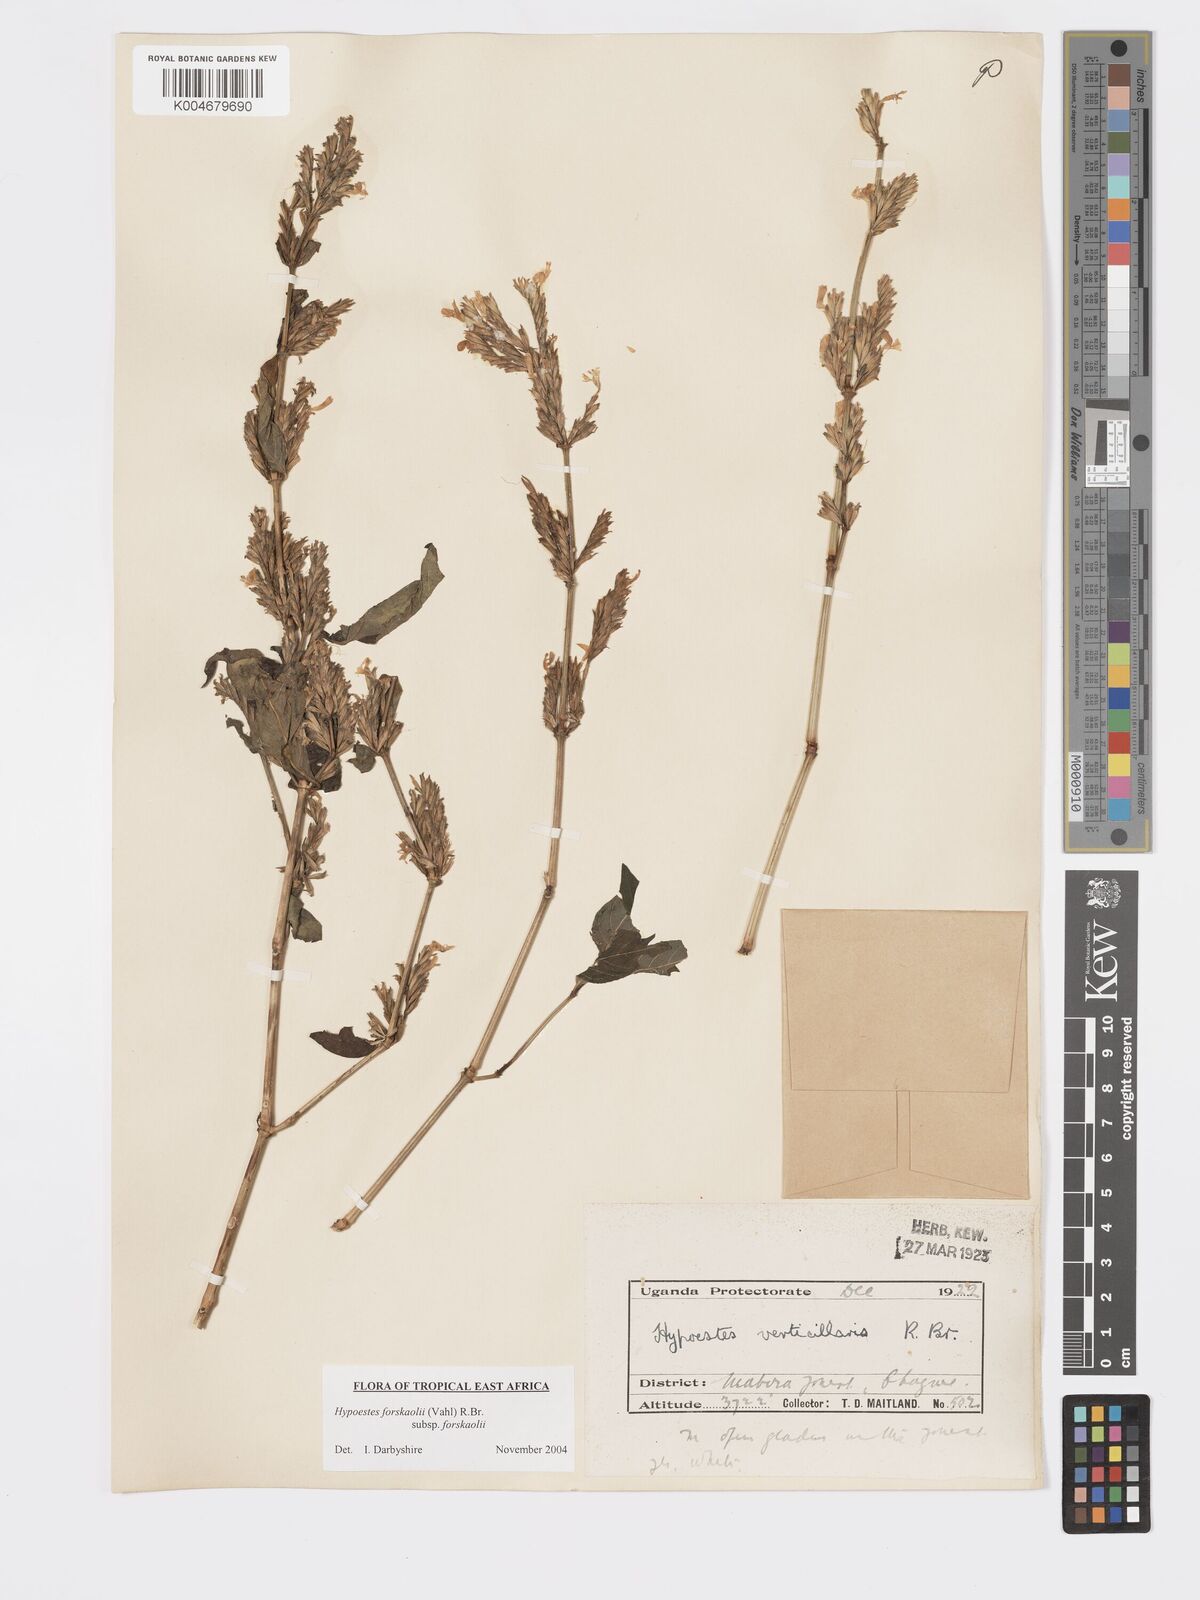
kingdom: Plantae
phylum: Tracheophyta
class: Magnoliopsida
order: Lamiales
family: Acanthaceae
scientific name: Acanthaceae
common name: Acanthaceae
